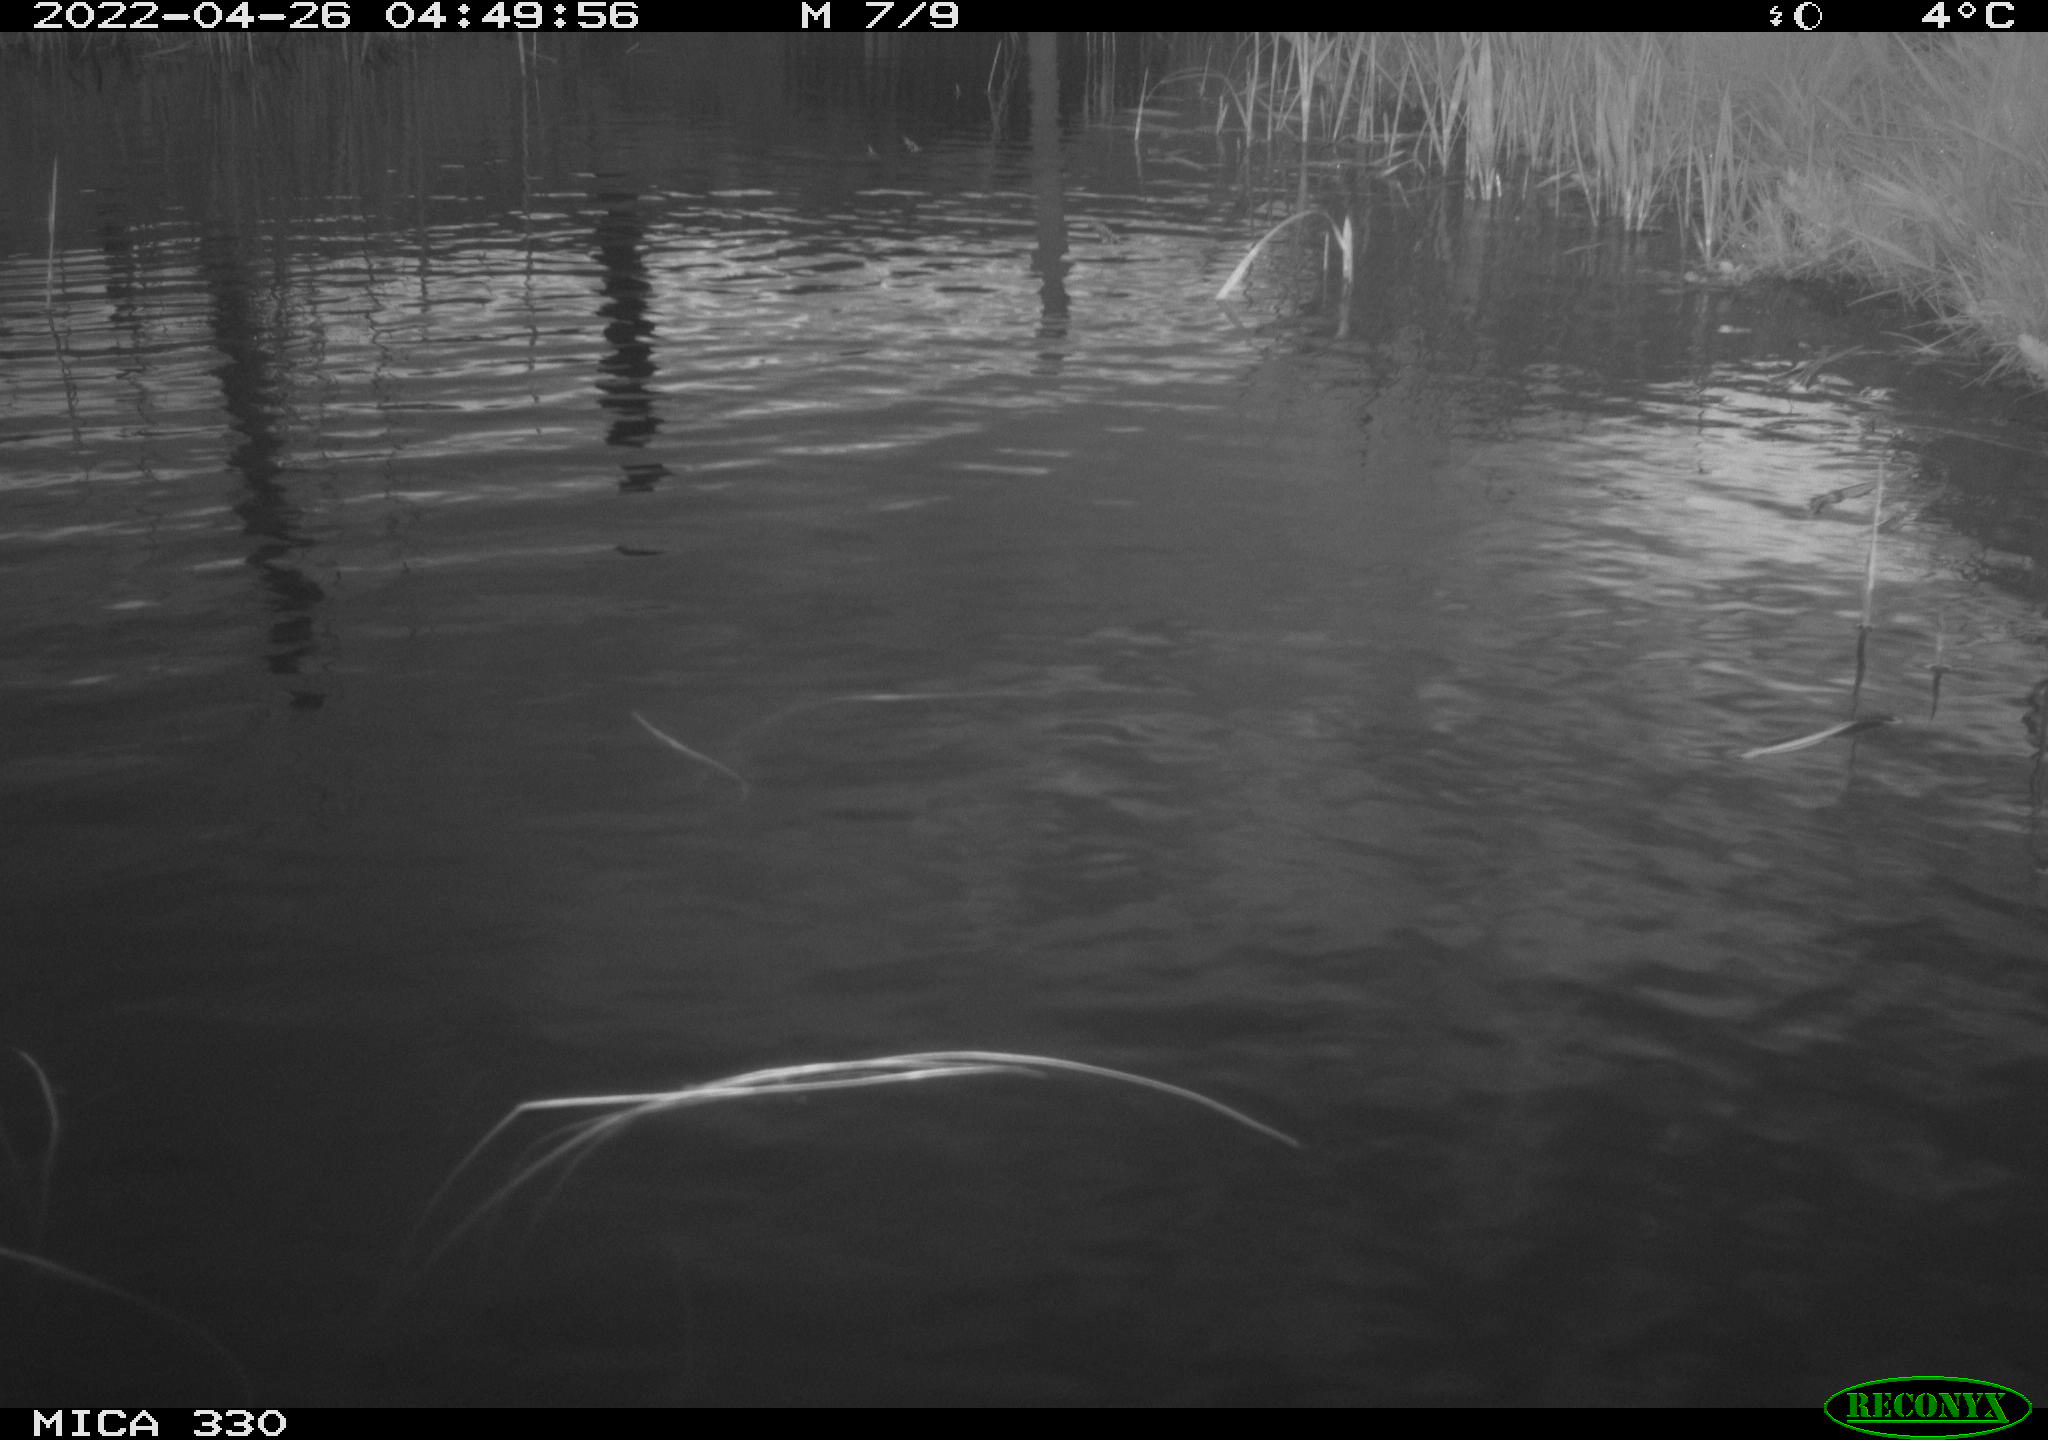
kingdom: Animalia
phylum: Chordata
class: Mammalia
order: Rodentia
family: Cricetidae
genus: Ondatra
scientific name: Ondatra zibethicus
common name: Muskrat
